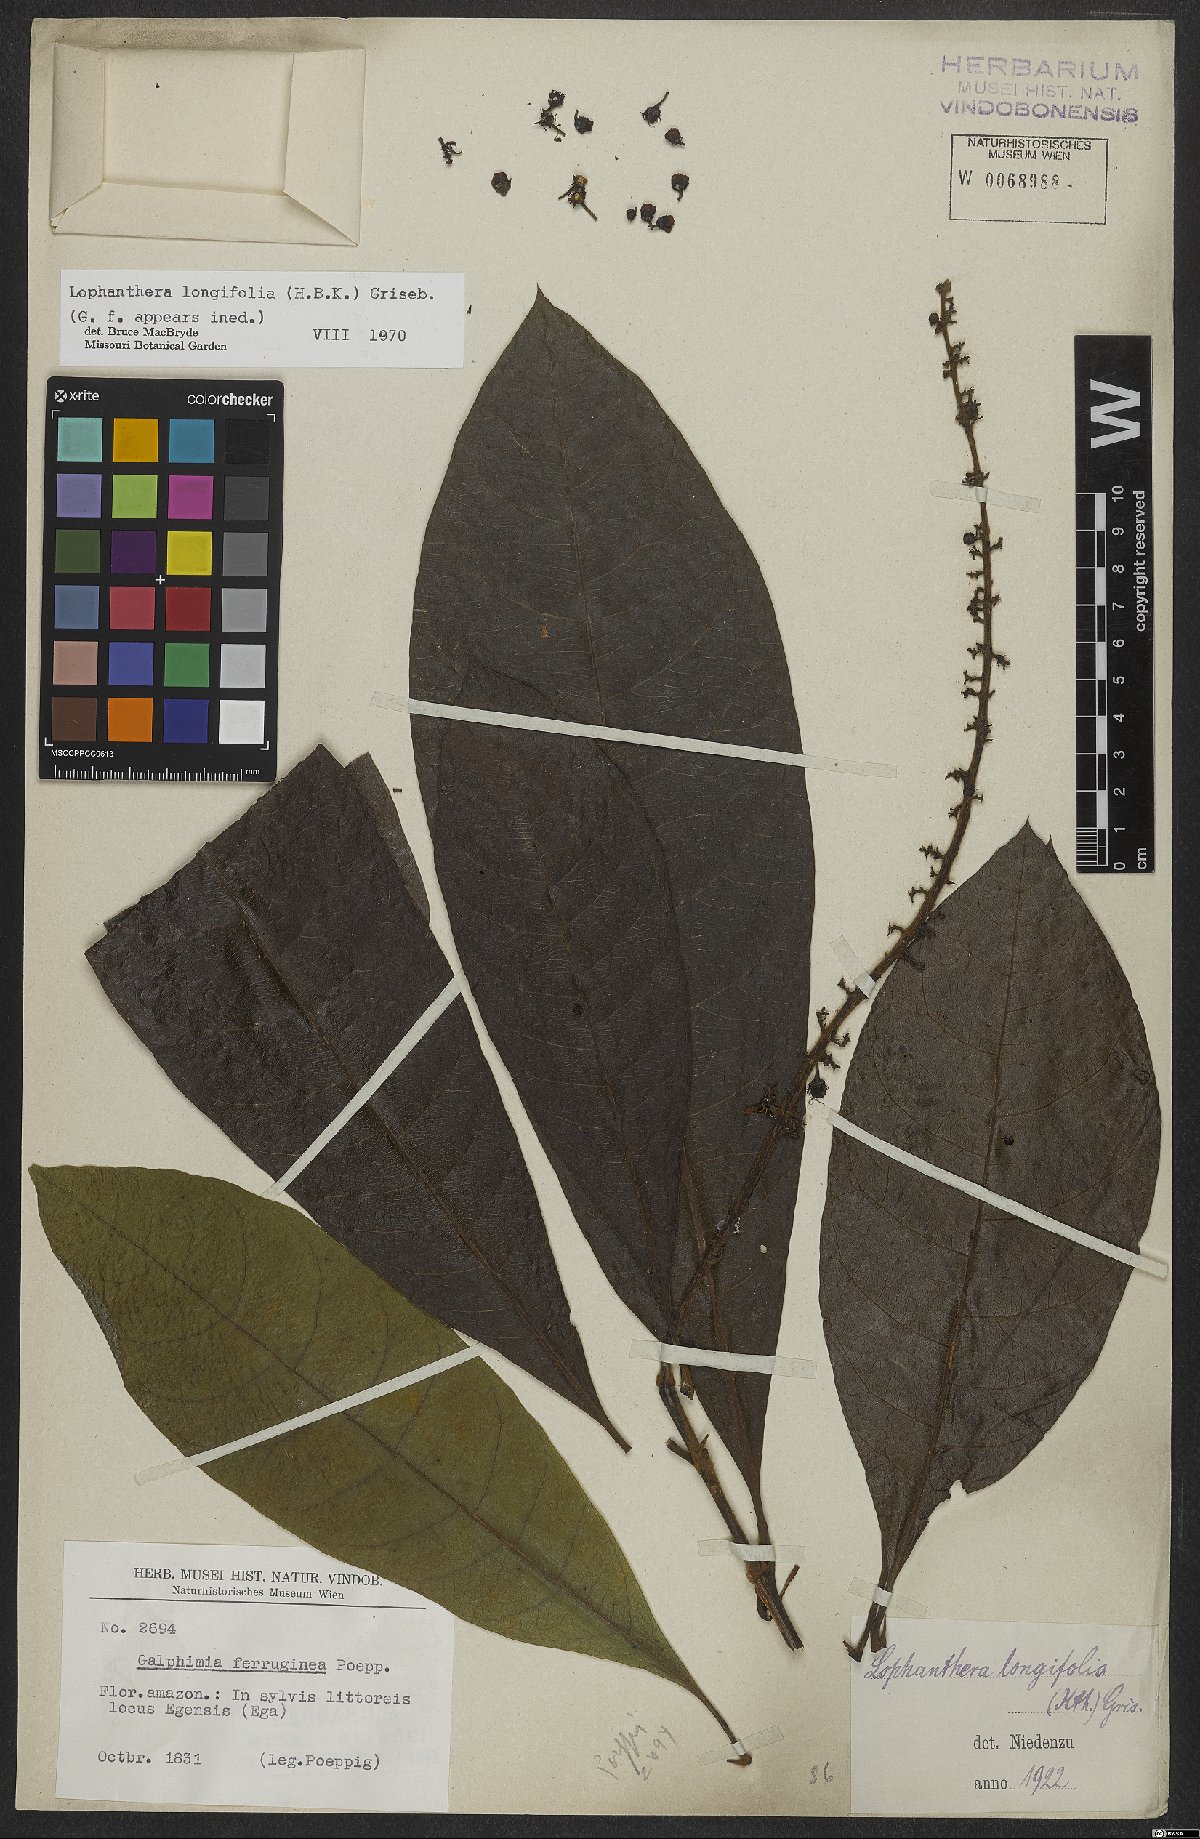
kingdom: Plantae
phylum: Tracheophyta
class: Magnoliopsida
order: Malpighiales
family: Malpighiaceae
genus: Lophanthera
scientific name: Lophanthera longifolia
